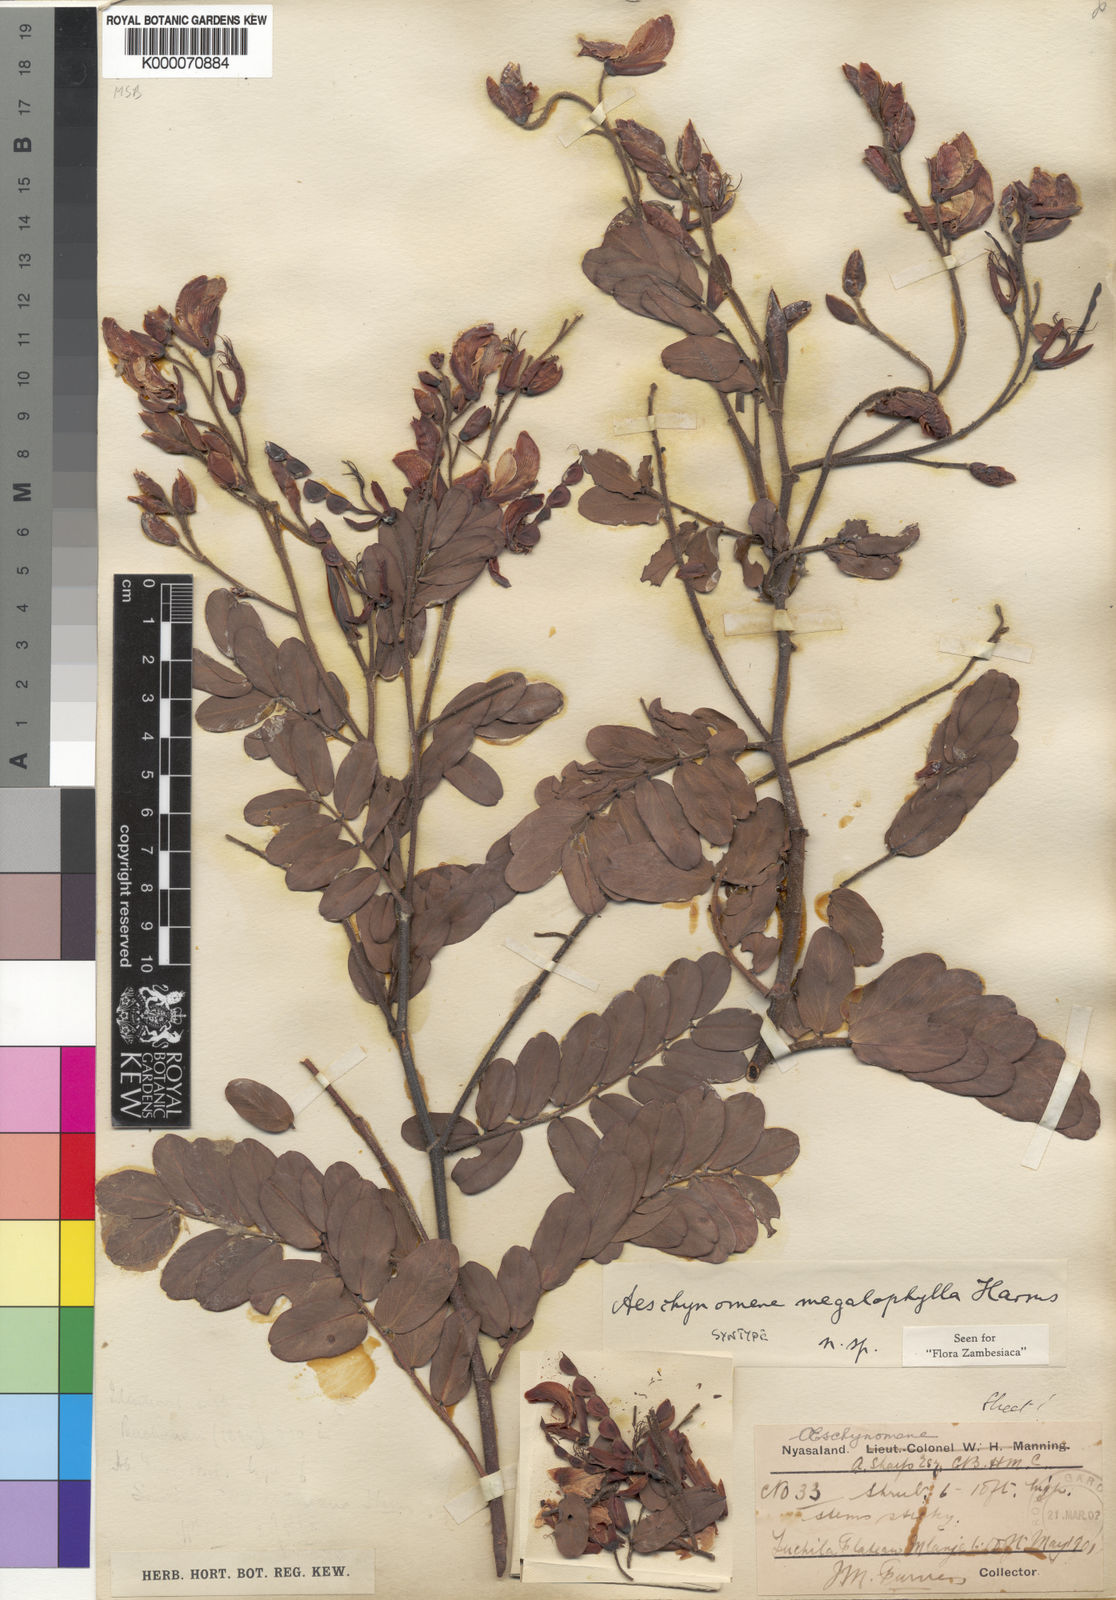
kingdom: Plantae
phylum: Tracheophyta
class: Magnoliopsida
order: Fabales
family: Fabaceae
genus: Aeschynomene
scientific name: Aeschynomene megalophylla
